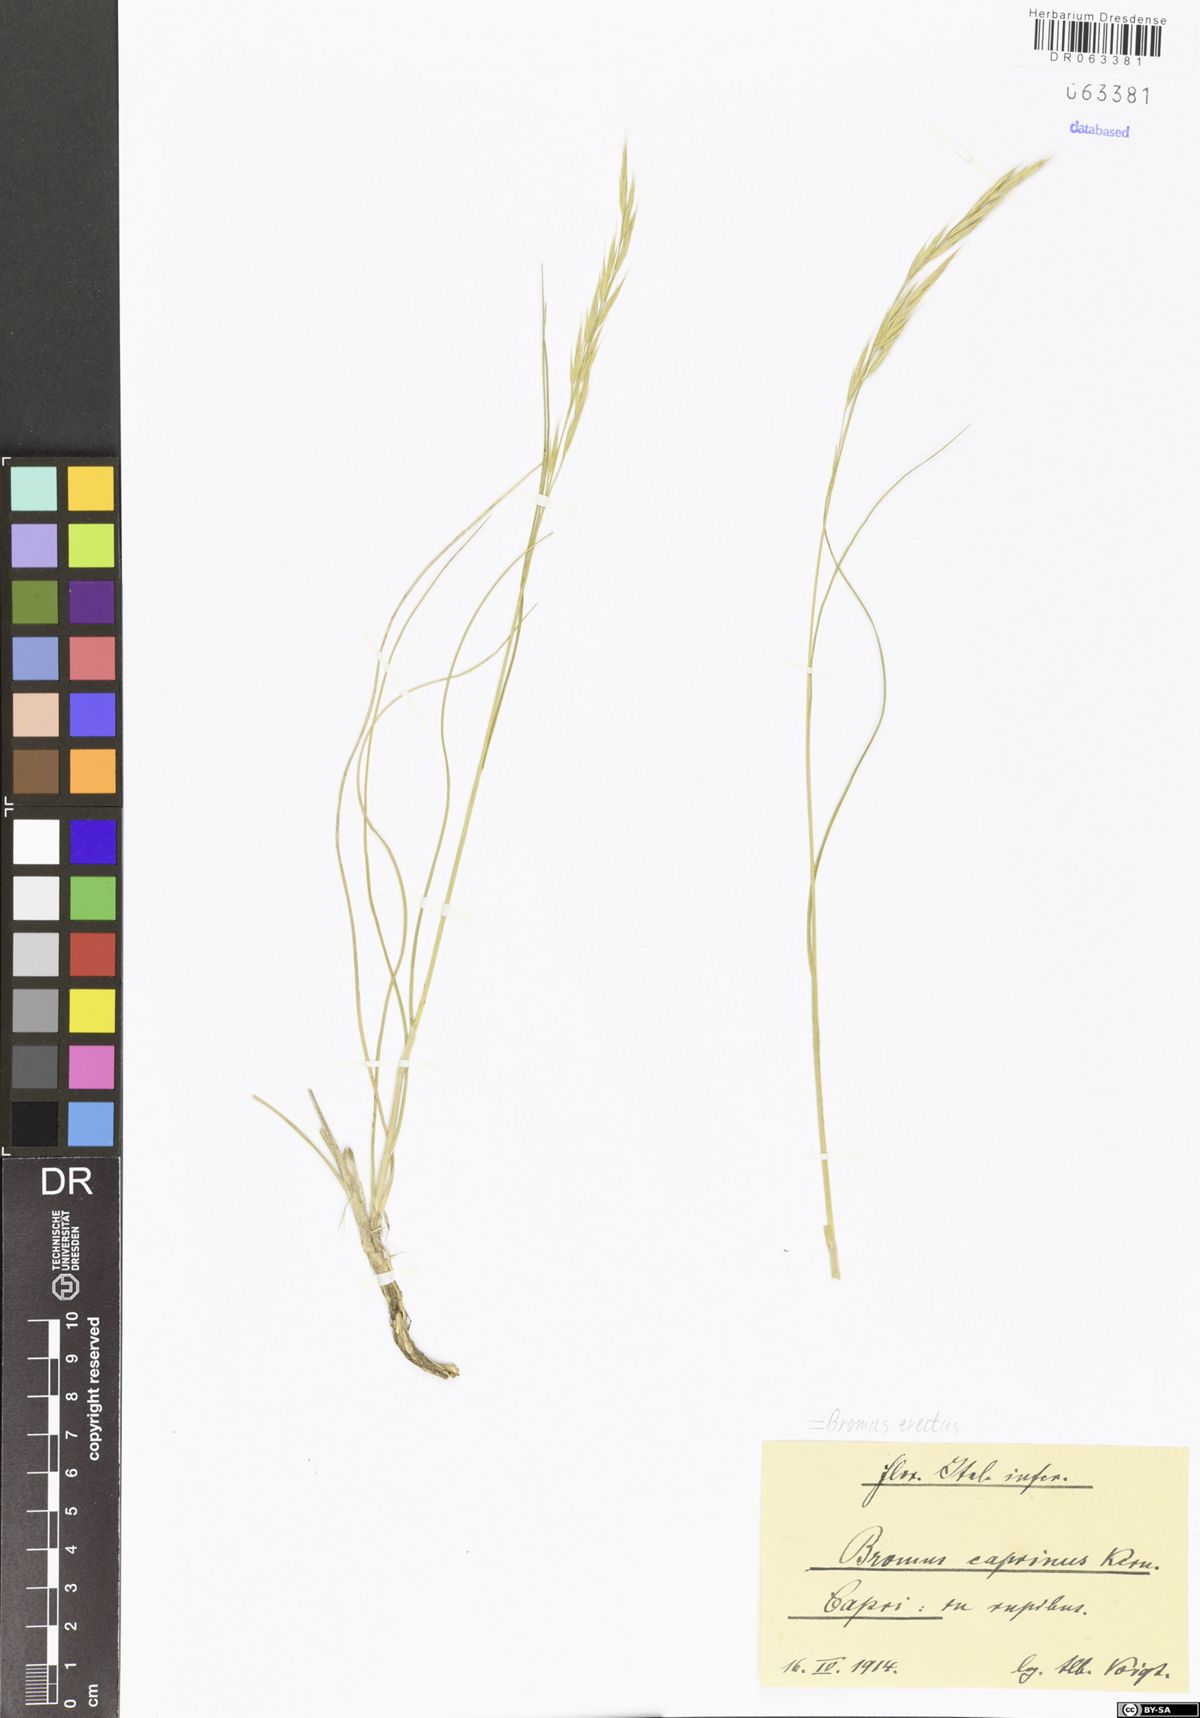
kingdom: Plantae
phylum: Tracheophyta
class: Liliopsida
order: Poales
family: Poaceae
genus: Bromus
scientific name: Bromus erectus
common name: Erect brome
